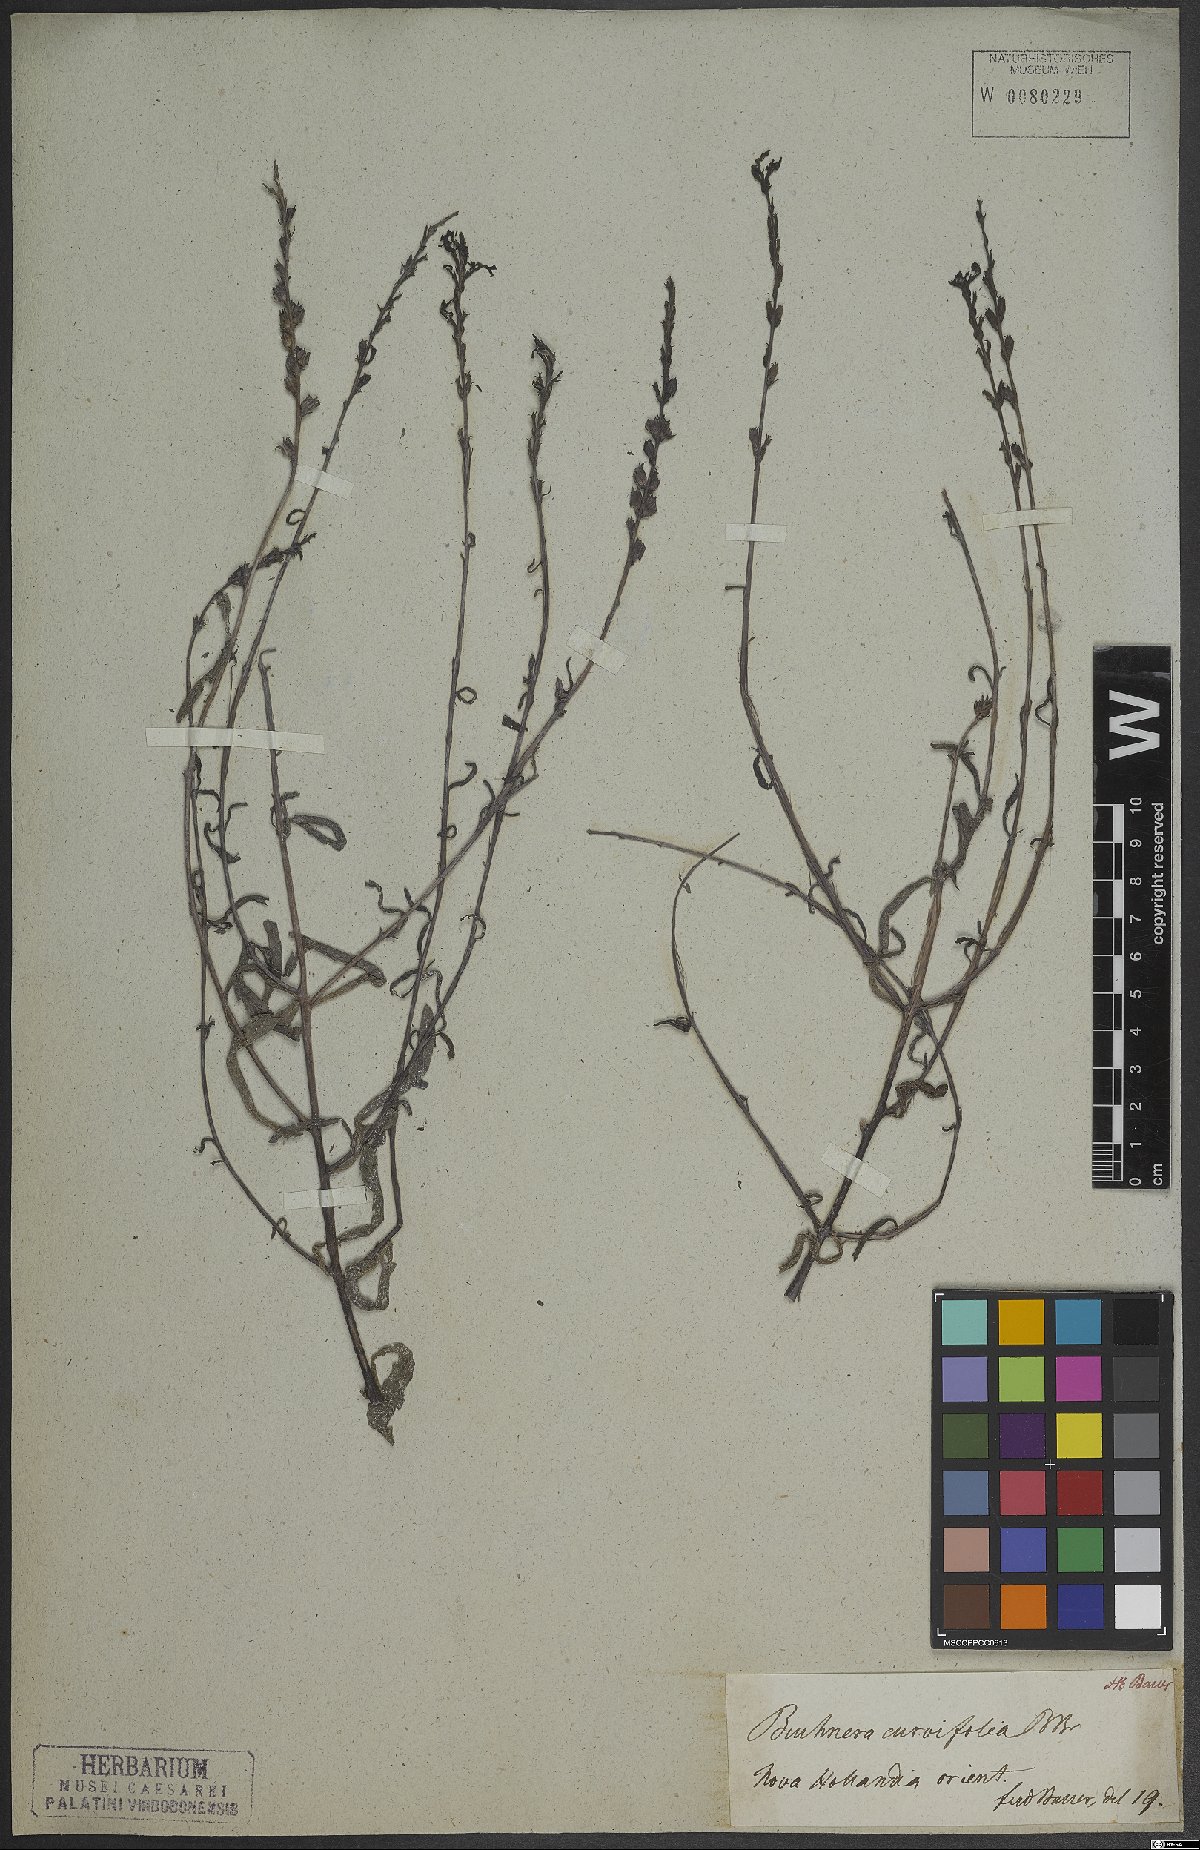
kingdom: Plantae
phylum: Tracheophyta
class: Magnoliopsida
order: Lamiales
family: Orobanchaceae
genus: Striga
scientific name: Striga curviflora
